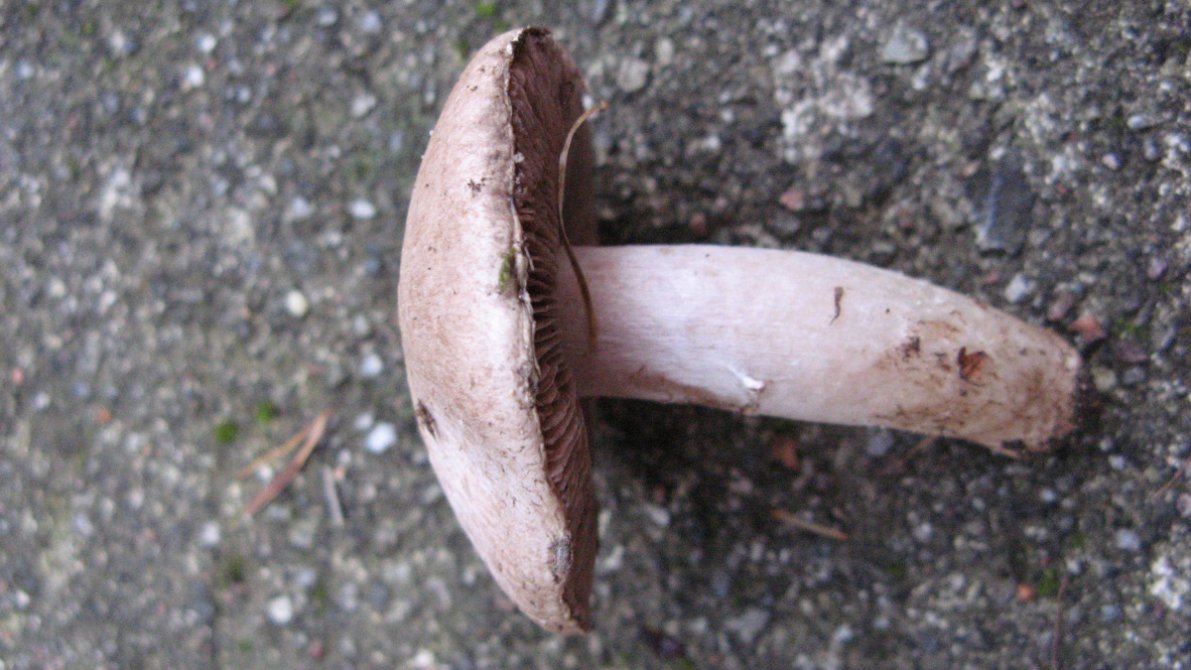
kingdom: Fungi
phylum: Basidiomycota
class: Agaricomycetes
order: Agaricales
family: Agaricaceae
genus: Agaricus
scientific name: Agaricus campestris
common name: mark-champignon
